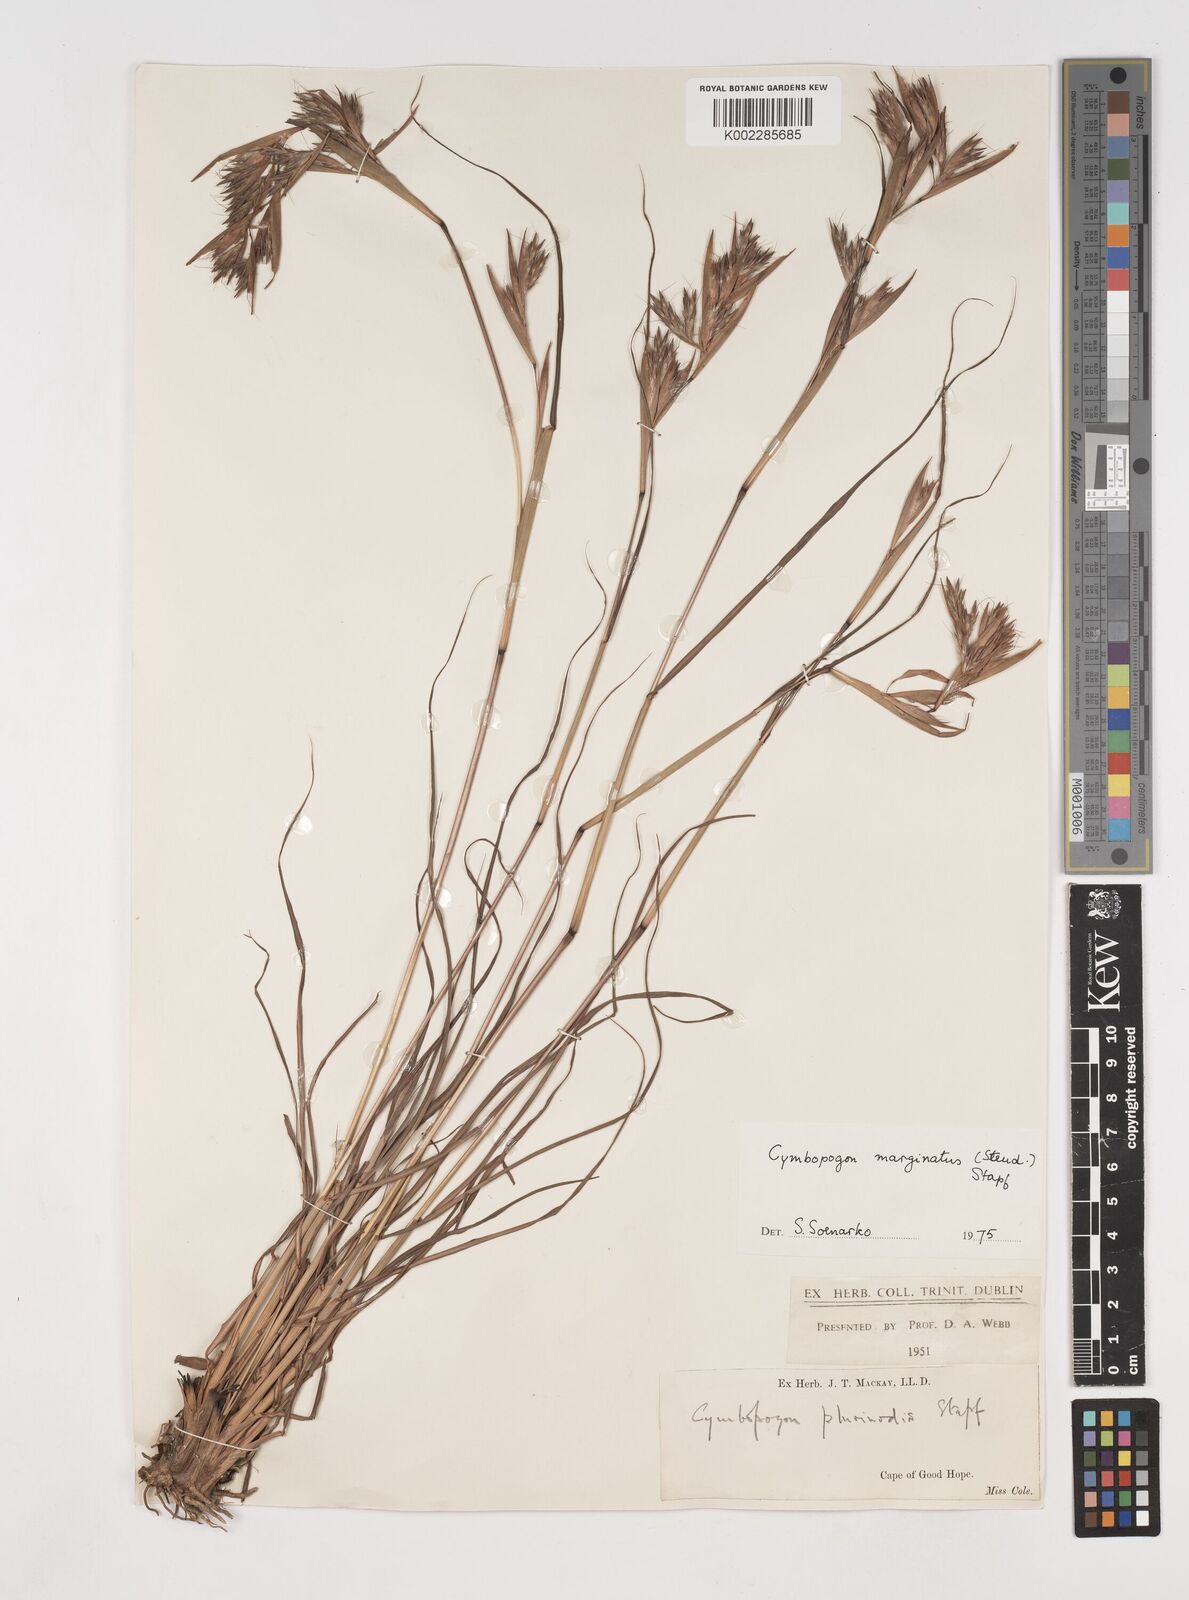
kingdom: Plantae
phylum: Tracheophyta
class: Liliopsida
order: Poales
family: Poaceae
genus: Cymbopogon
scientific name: Cymbopogon marginatus
